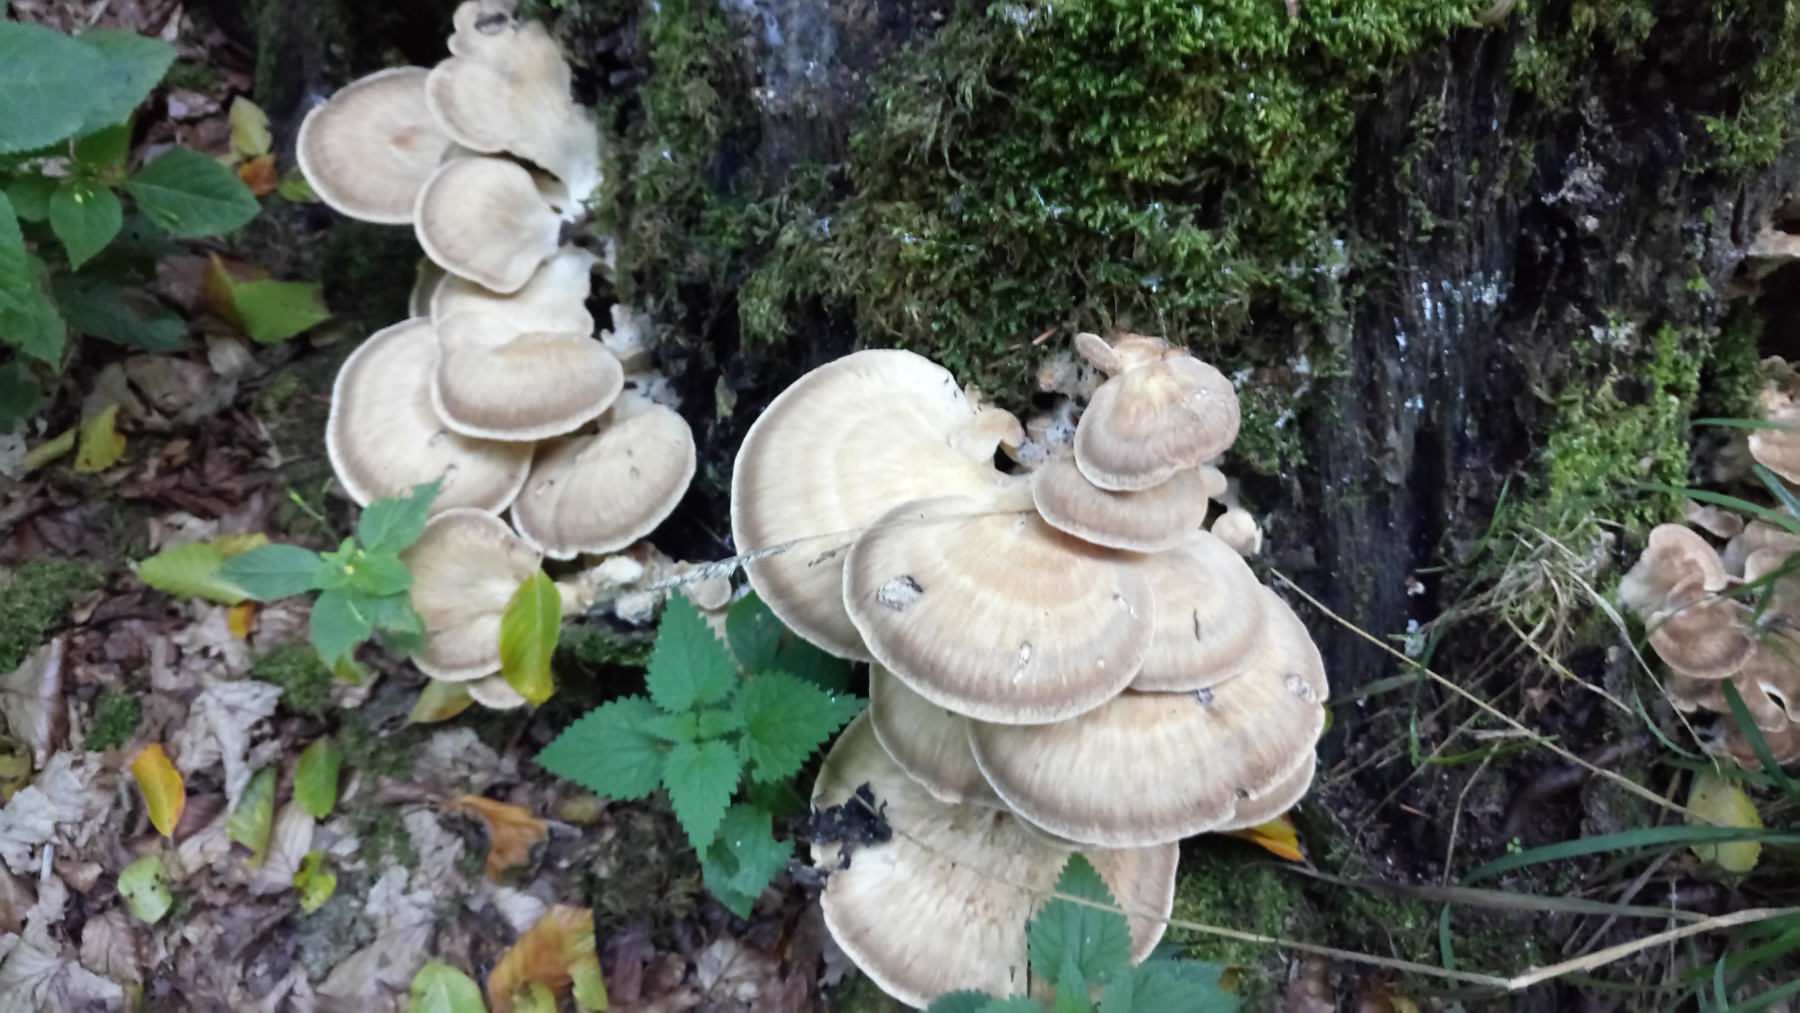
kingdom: Fungi
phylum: Basidiomycota
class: Agaricomycetes
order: Polyporales
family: Meripilaceae
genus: Meripilus
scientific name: Meripilus giganteus
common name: kæmpeporesvamp
